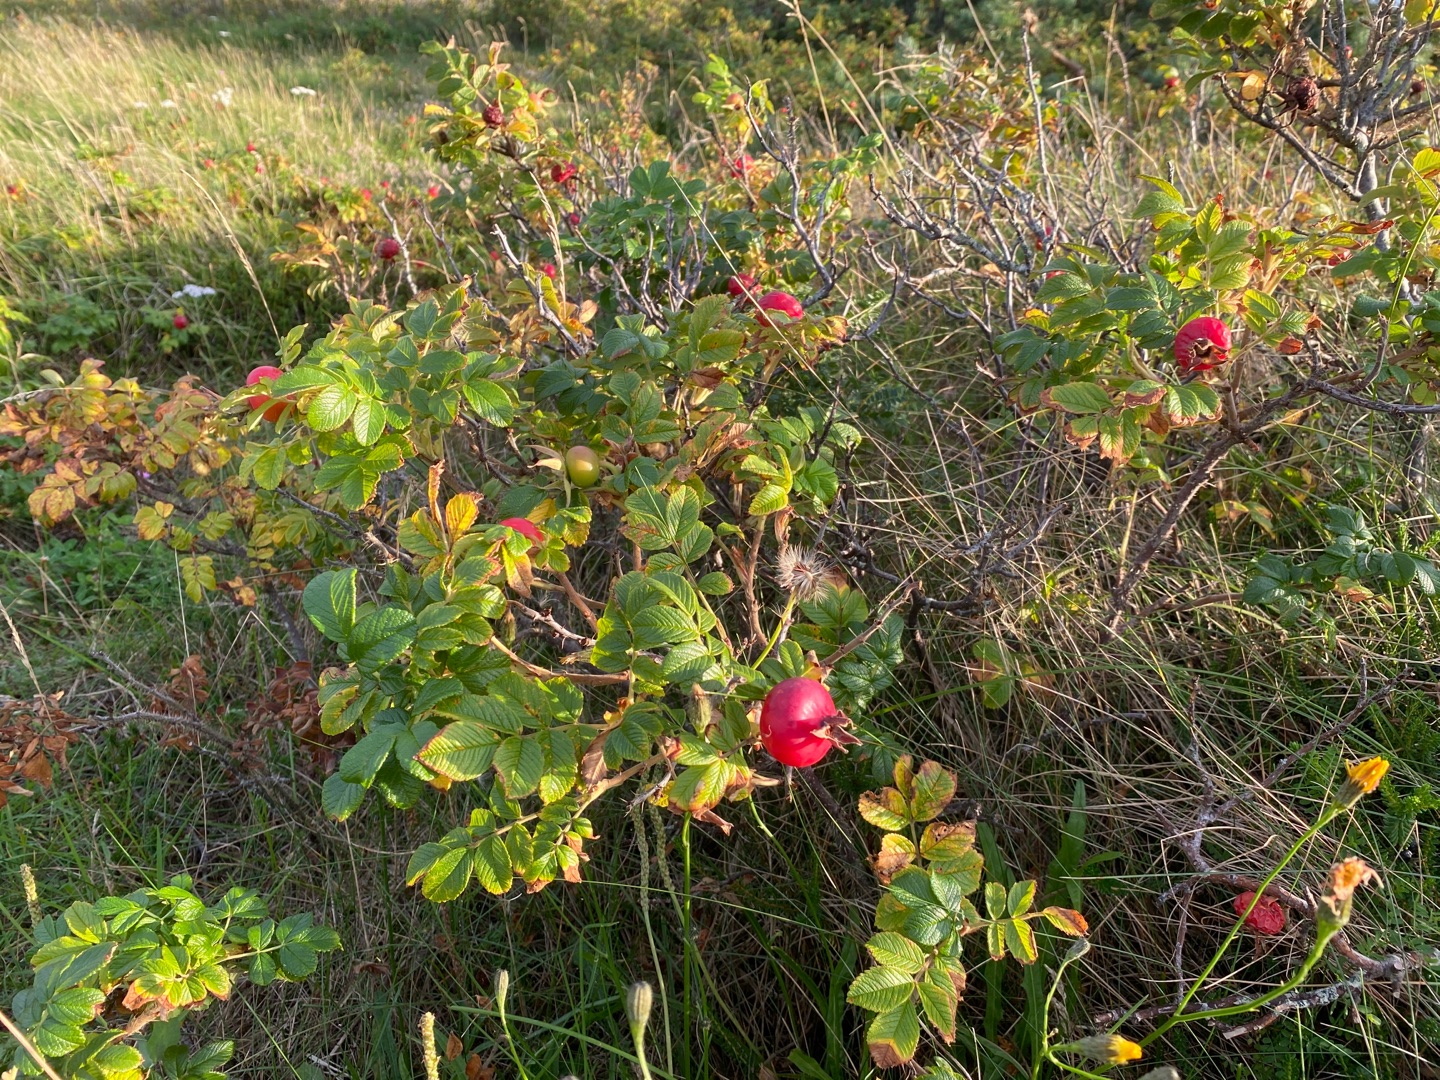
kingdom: Plantae
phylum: Tracheophyta
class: Magnoliopsida
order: Rosales
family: Rosaceae
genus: Rosa
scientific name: Rosa rugosa
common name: Rynket rose
